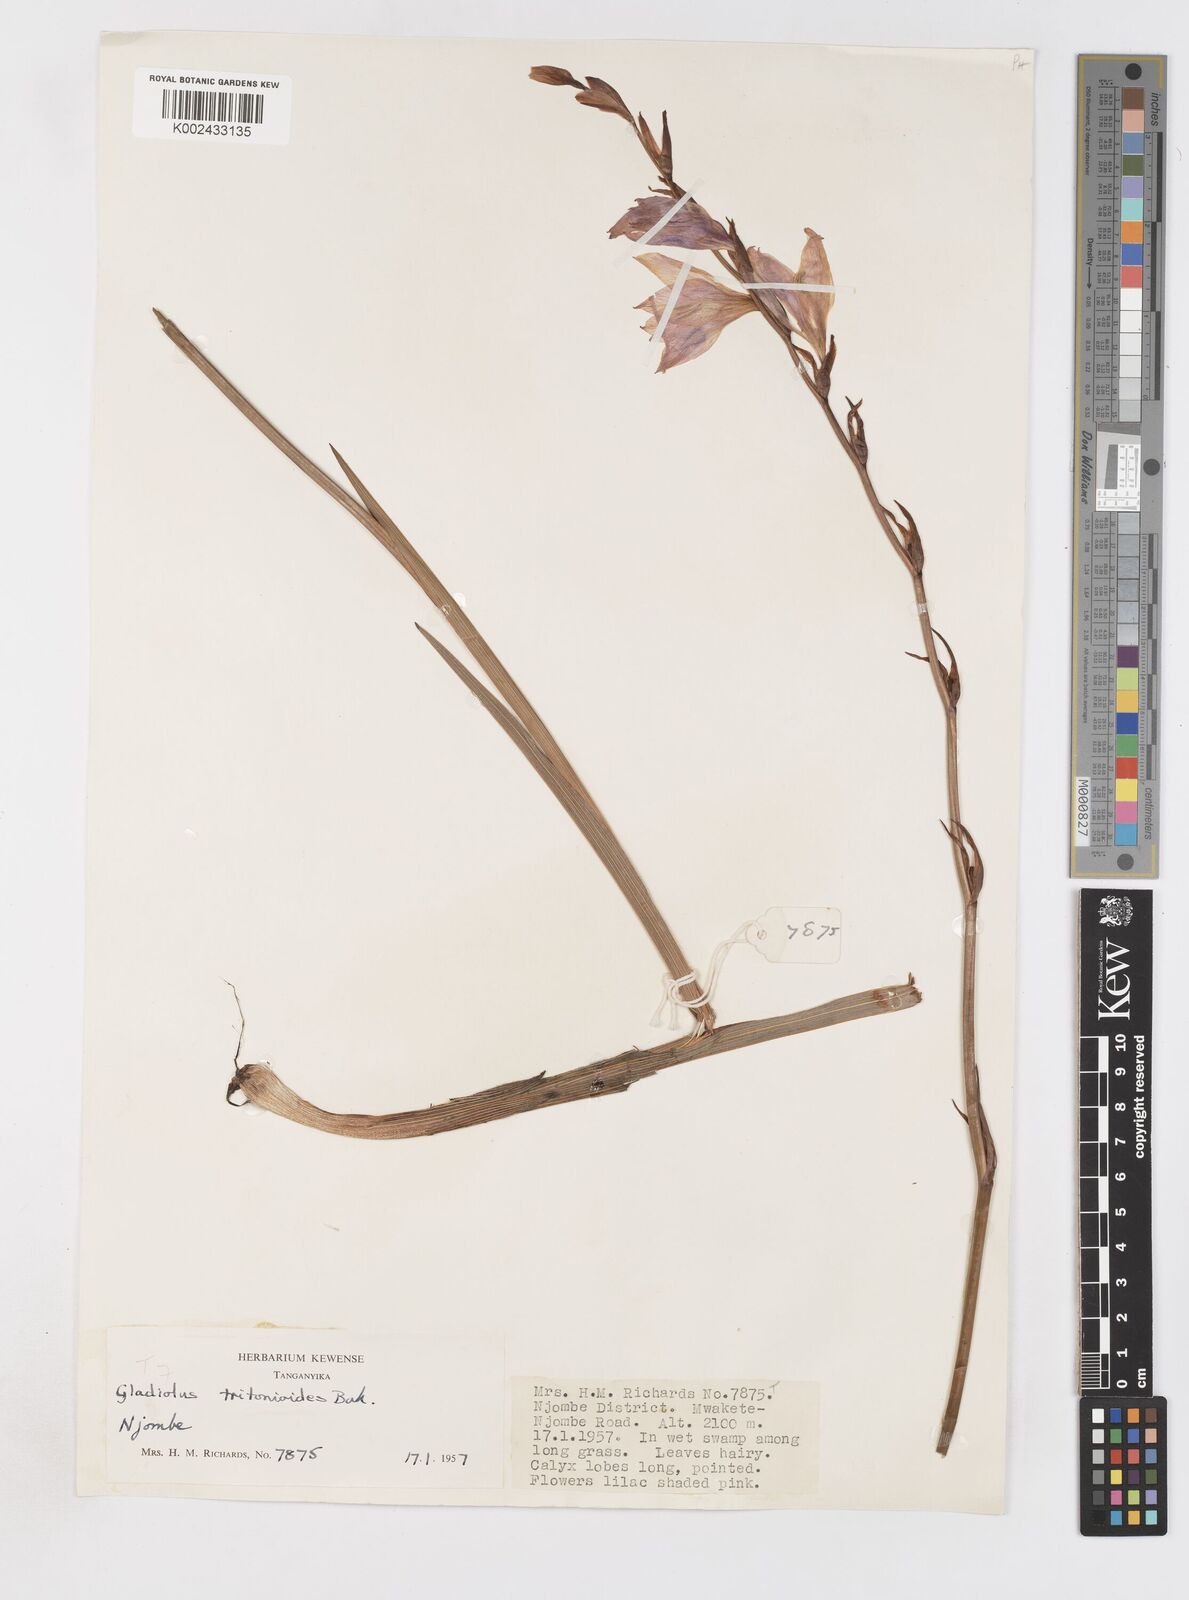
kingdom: Plantae
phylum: Tracheophyta
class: Liliopsida
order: Asparagales
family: Iridaceae
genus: Gladiolus
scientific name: Gladiolus laxiflorus
